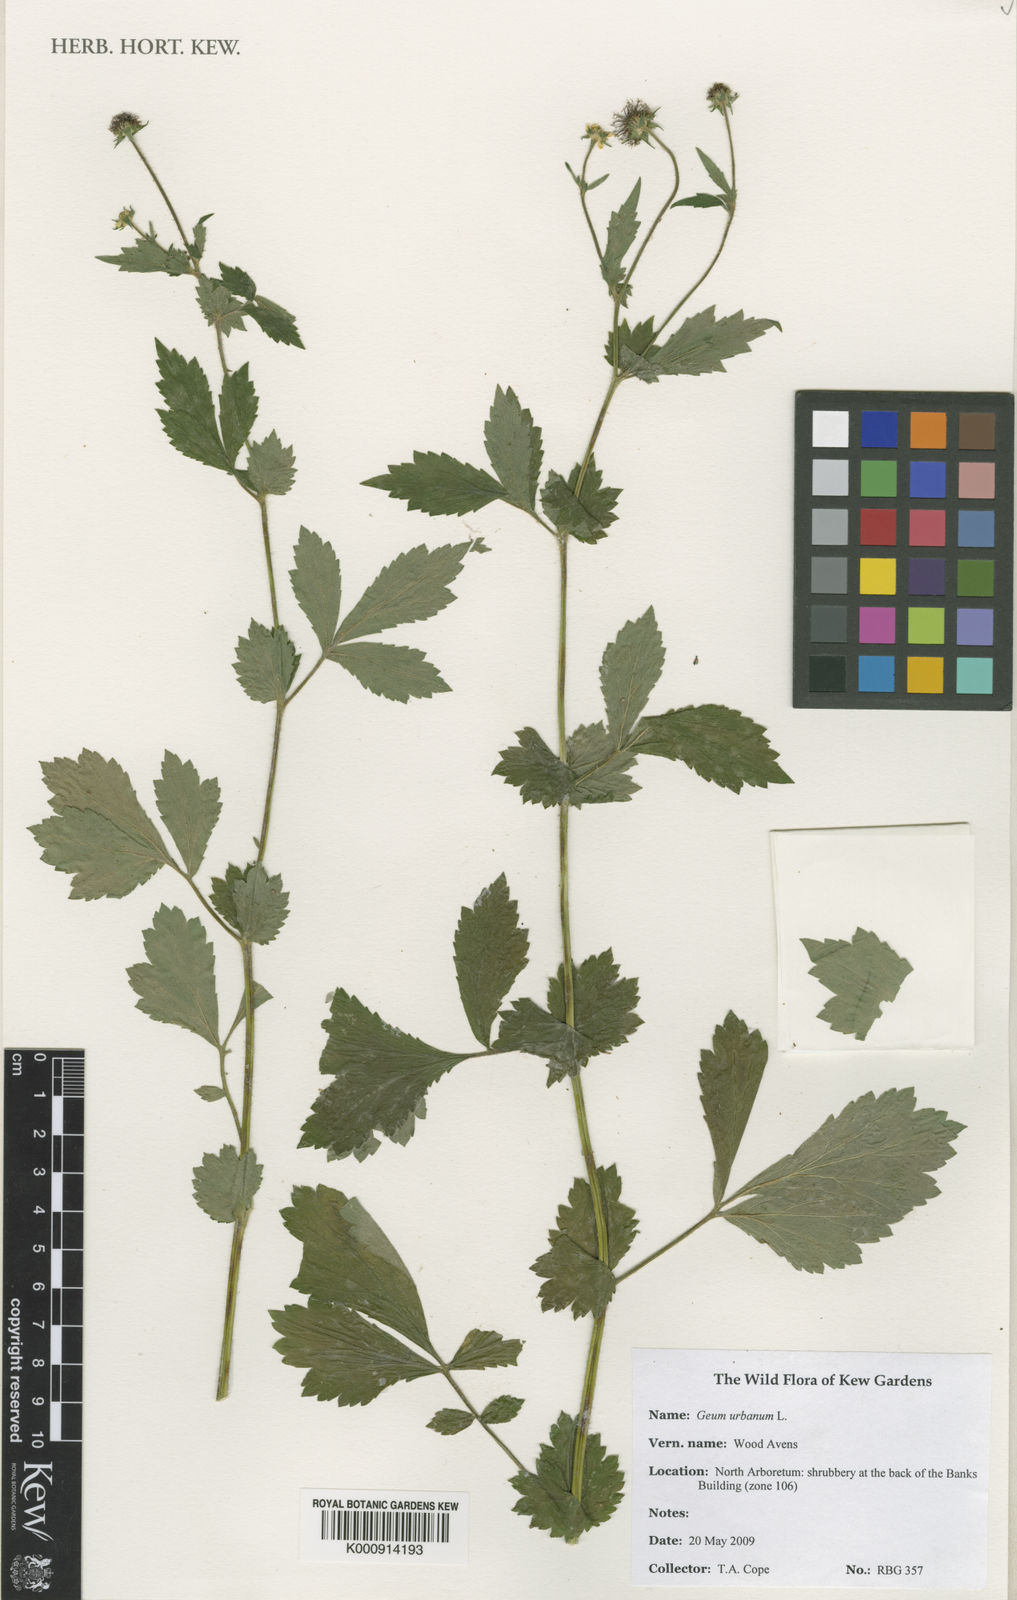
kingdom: Plantae
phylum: Tracheophyta
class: Magnoliopsida
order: Rosales
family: Rosaceae
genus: Geum
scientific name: Geum urbanum
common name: Wood avens
